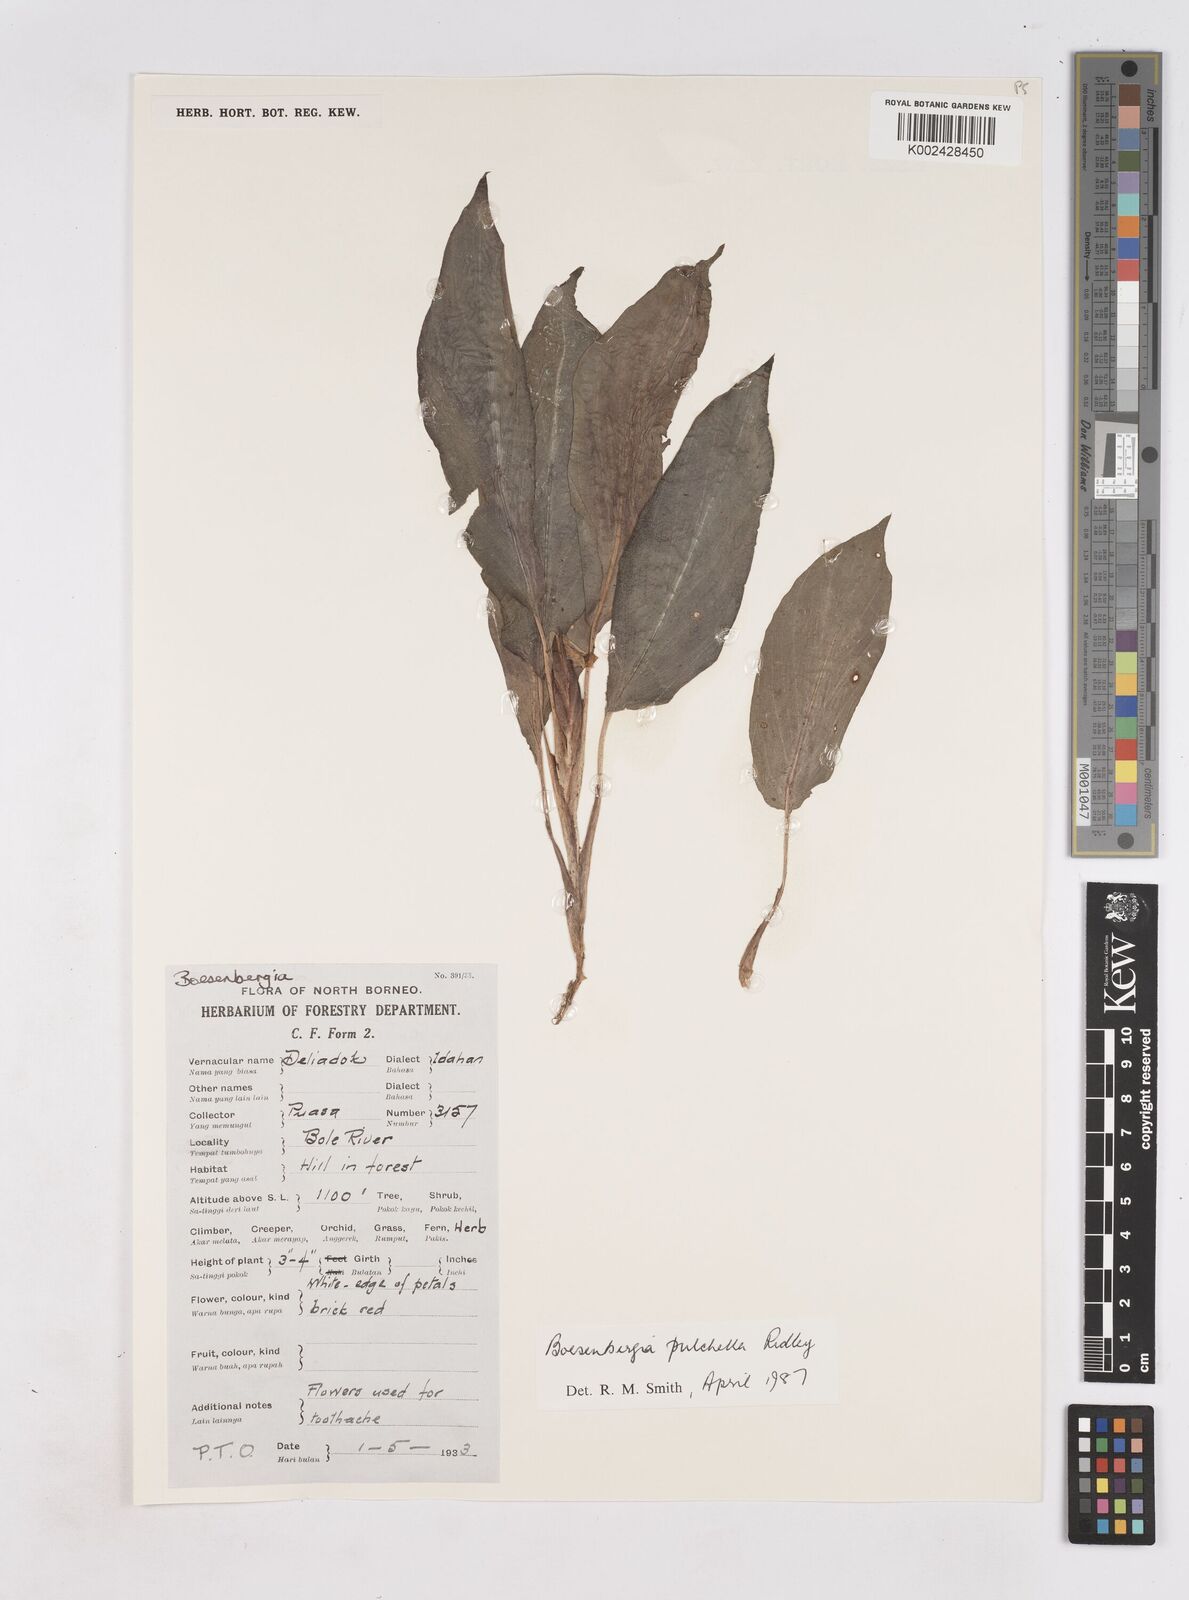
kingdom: Plantae
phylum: Tracheophyta
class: Liliopsida
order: Zingiberales
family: Zingiberaceae
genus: Boesenbergia
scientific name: Boesenbergia pulchella
